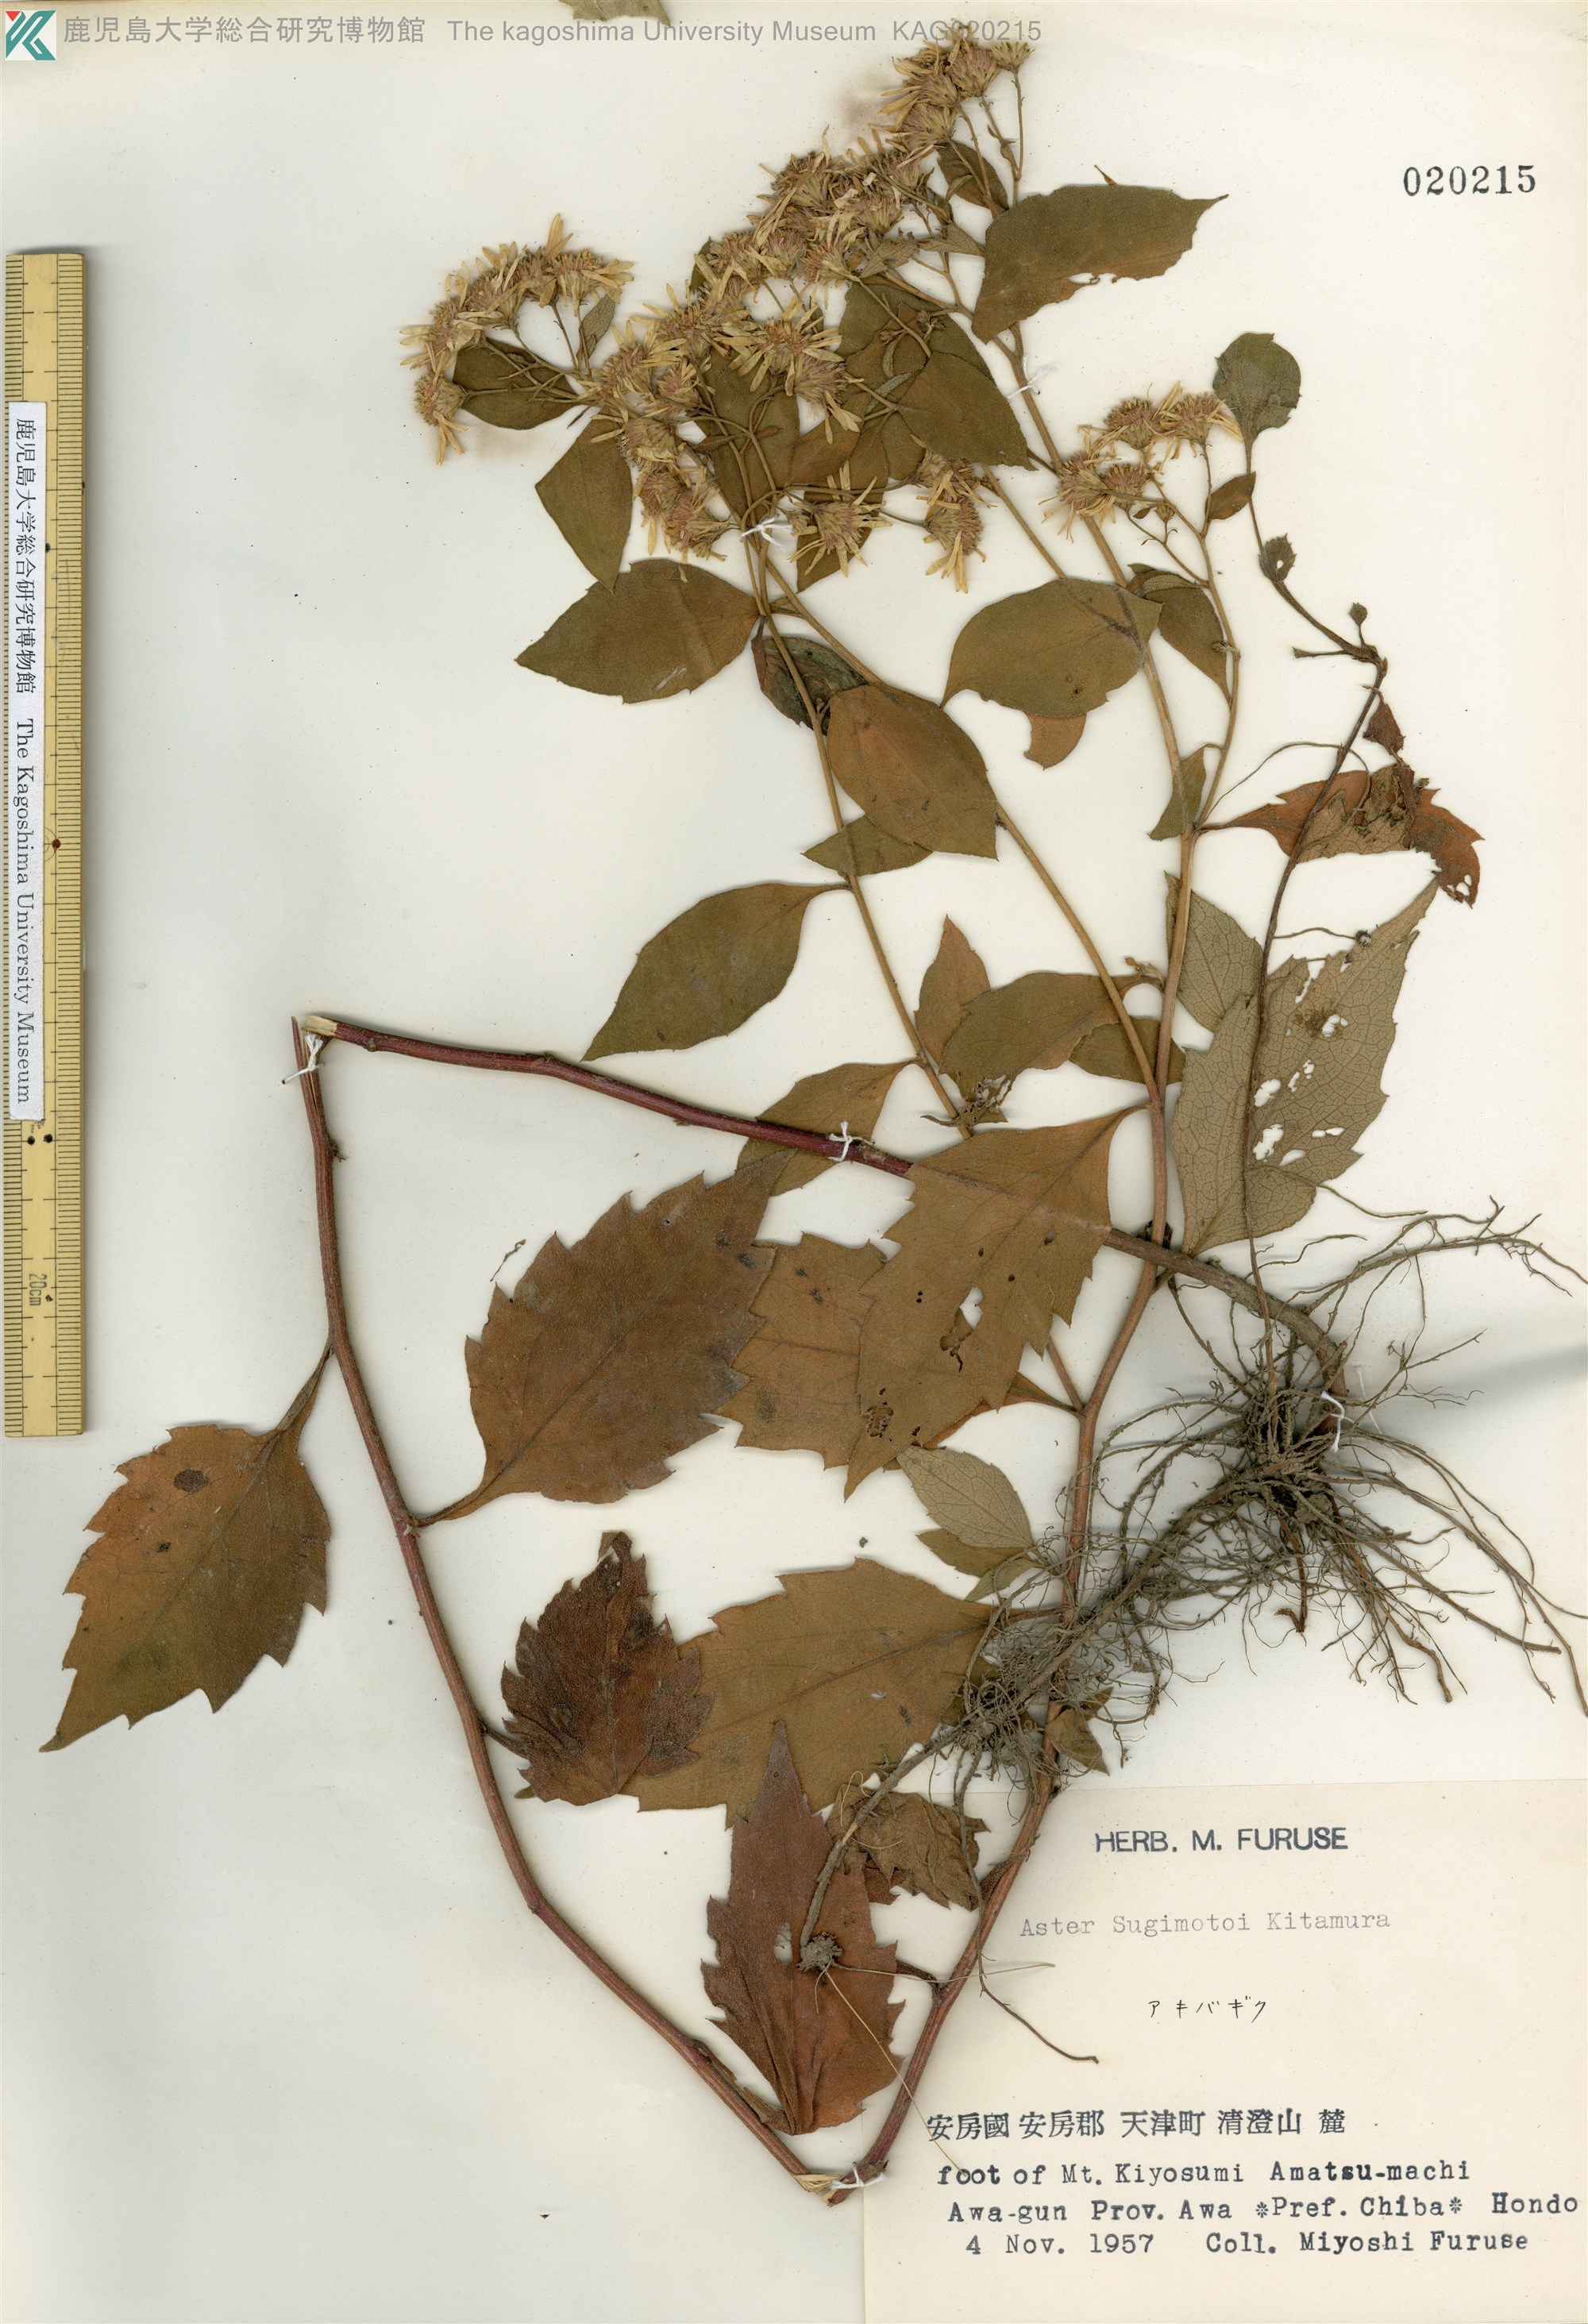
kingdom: Plantae
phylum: Tracheophyta
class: Magnoliopsida
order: Asterales
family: Asteraceae
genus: Aster
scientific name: Aster sugimotoi
